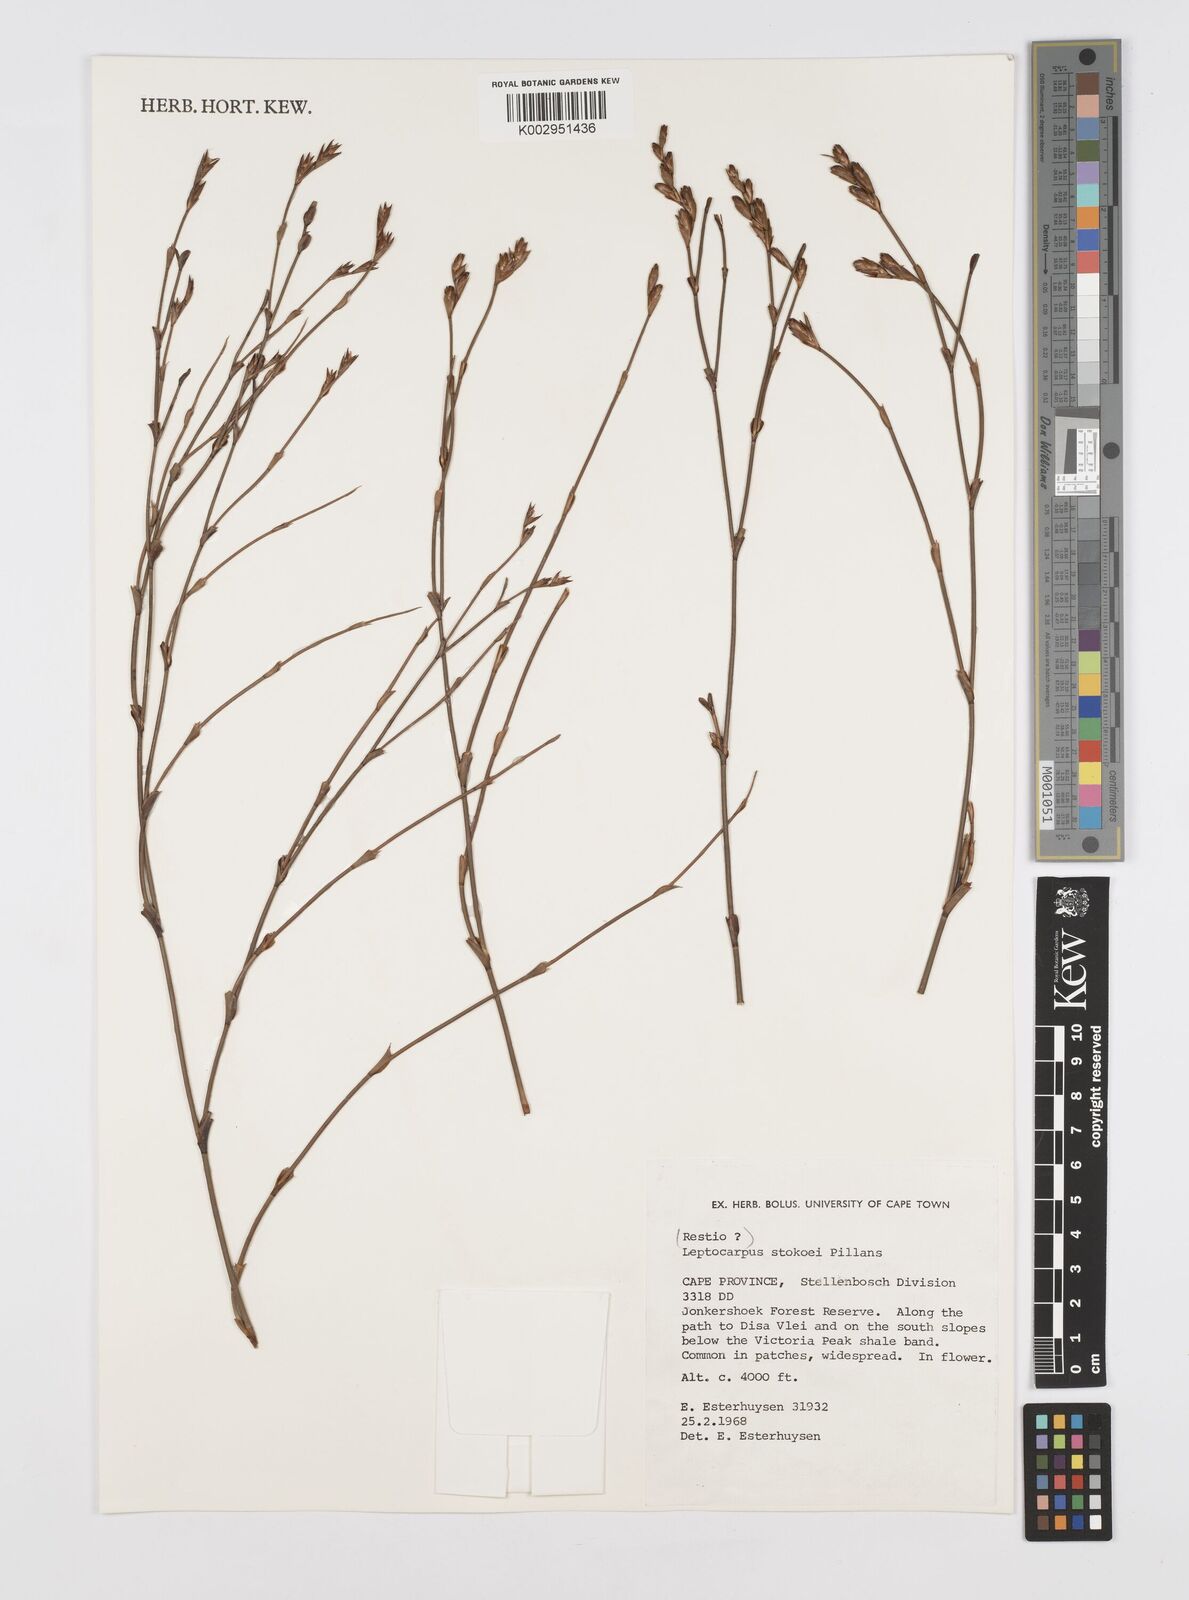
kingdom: Plantae
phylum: Tracheophyta
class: Liliopsida
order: Poales
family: Restionaceae
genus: Restio
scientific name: Restio pillansii
